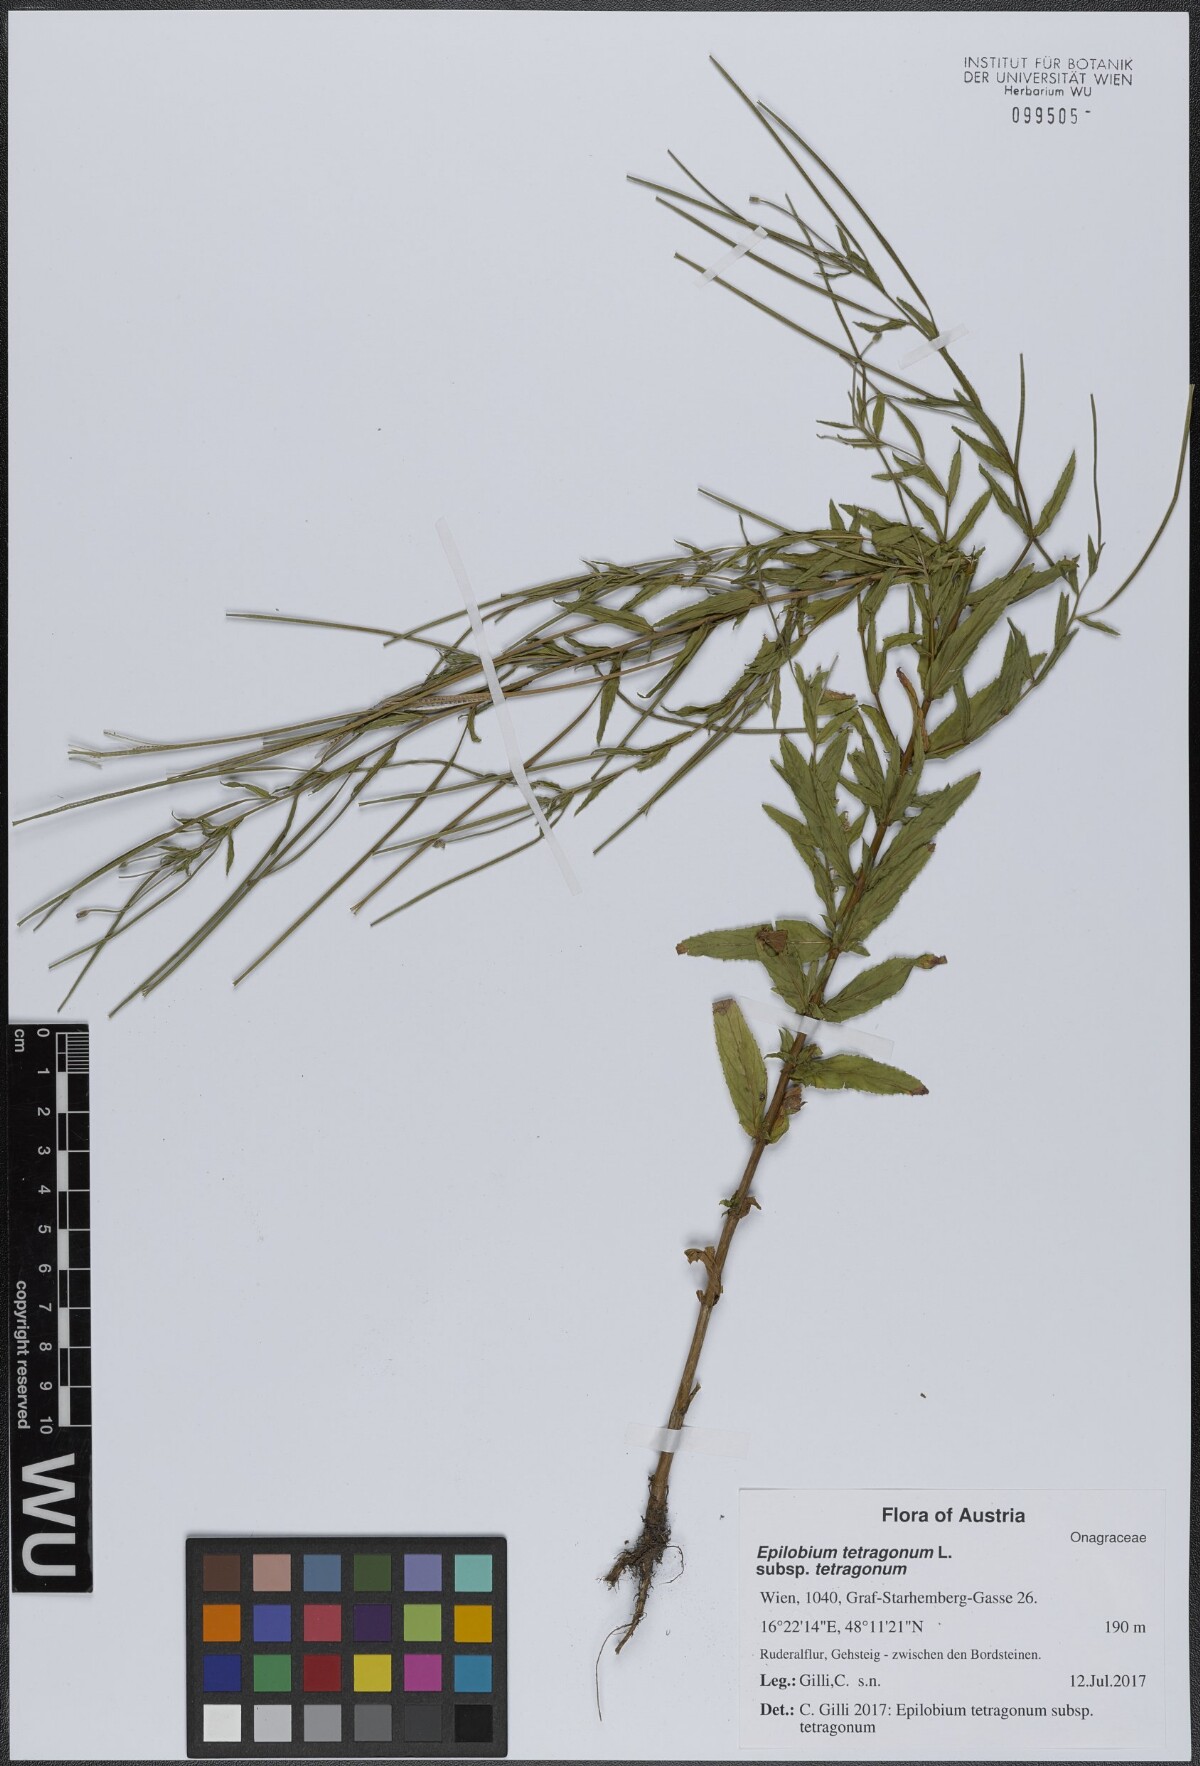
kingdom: Plantae
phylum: Tracheophyta
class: Magnoliopsida
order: Myrtales
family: Onagraceae
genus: Epilobium
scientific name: Epilobium tetragonum
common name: Square-stemmed willowherb
